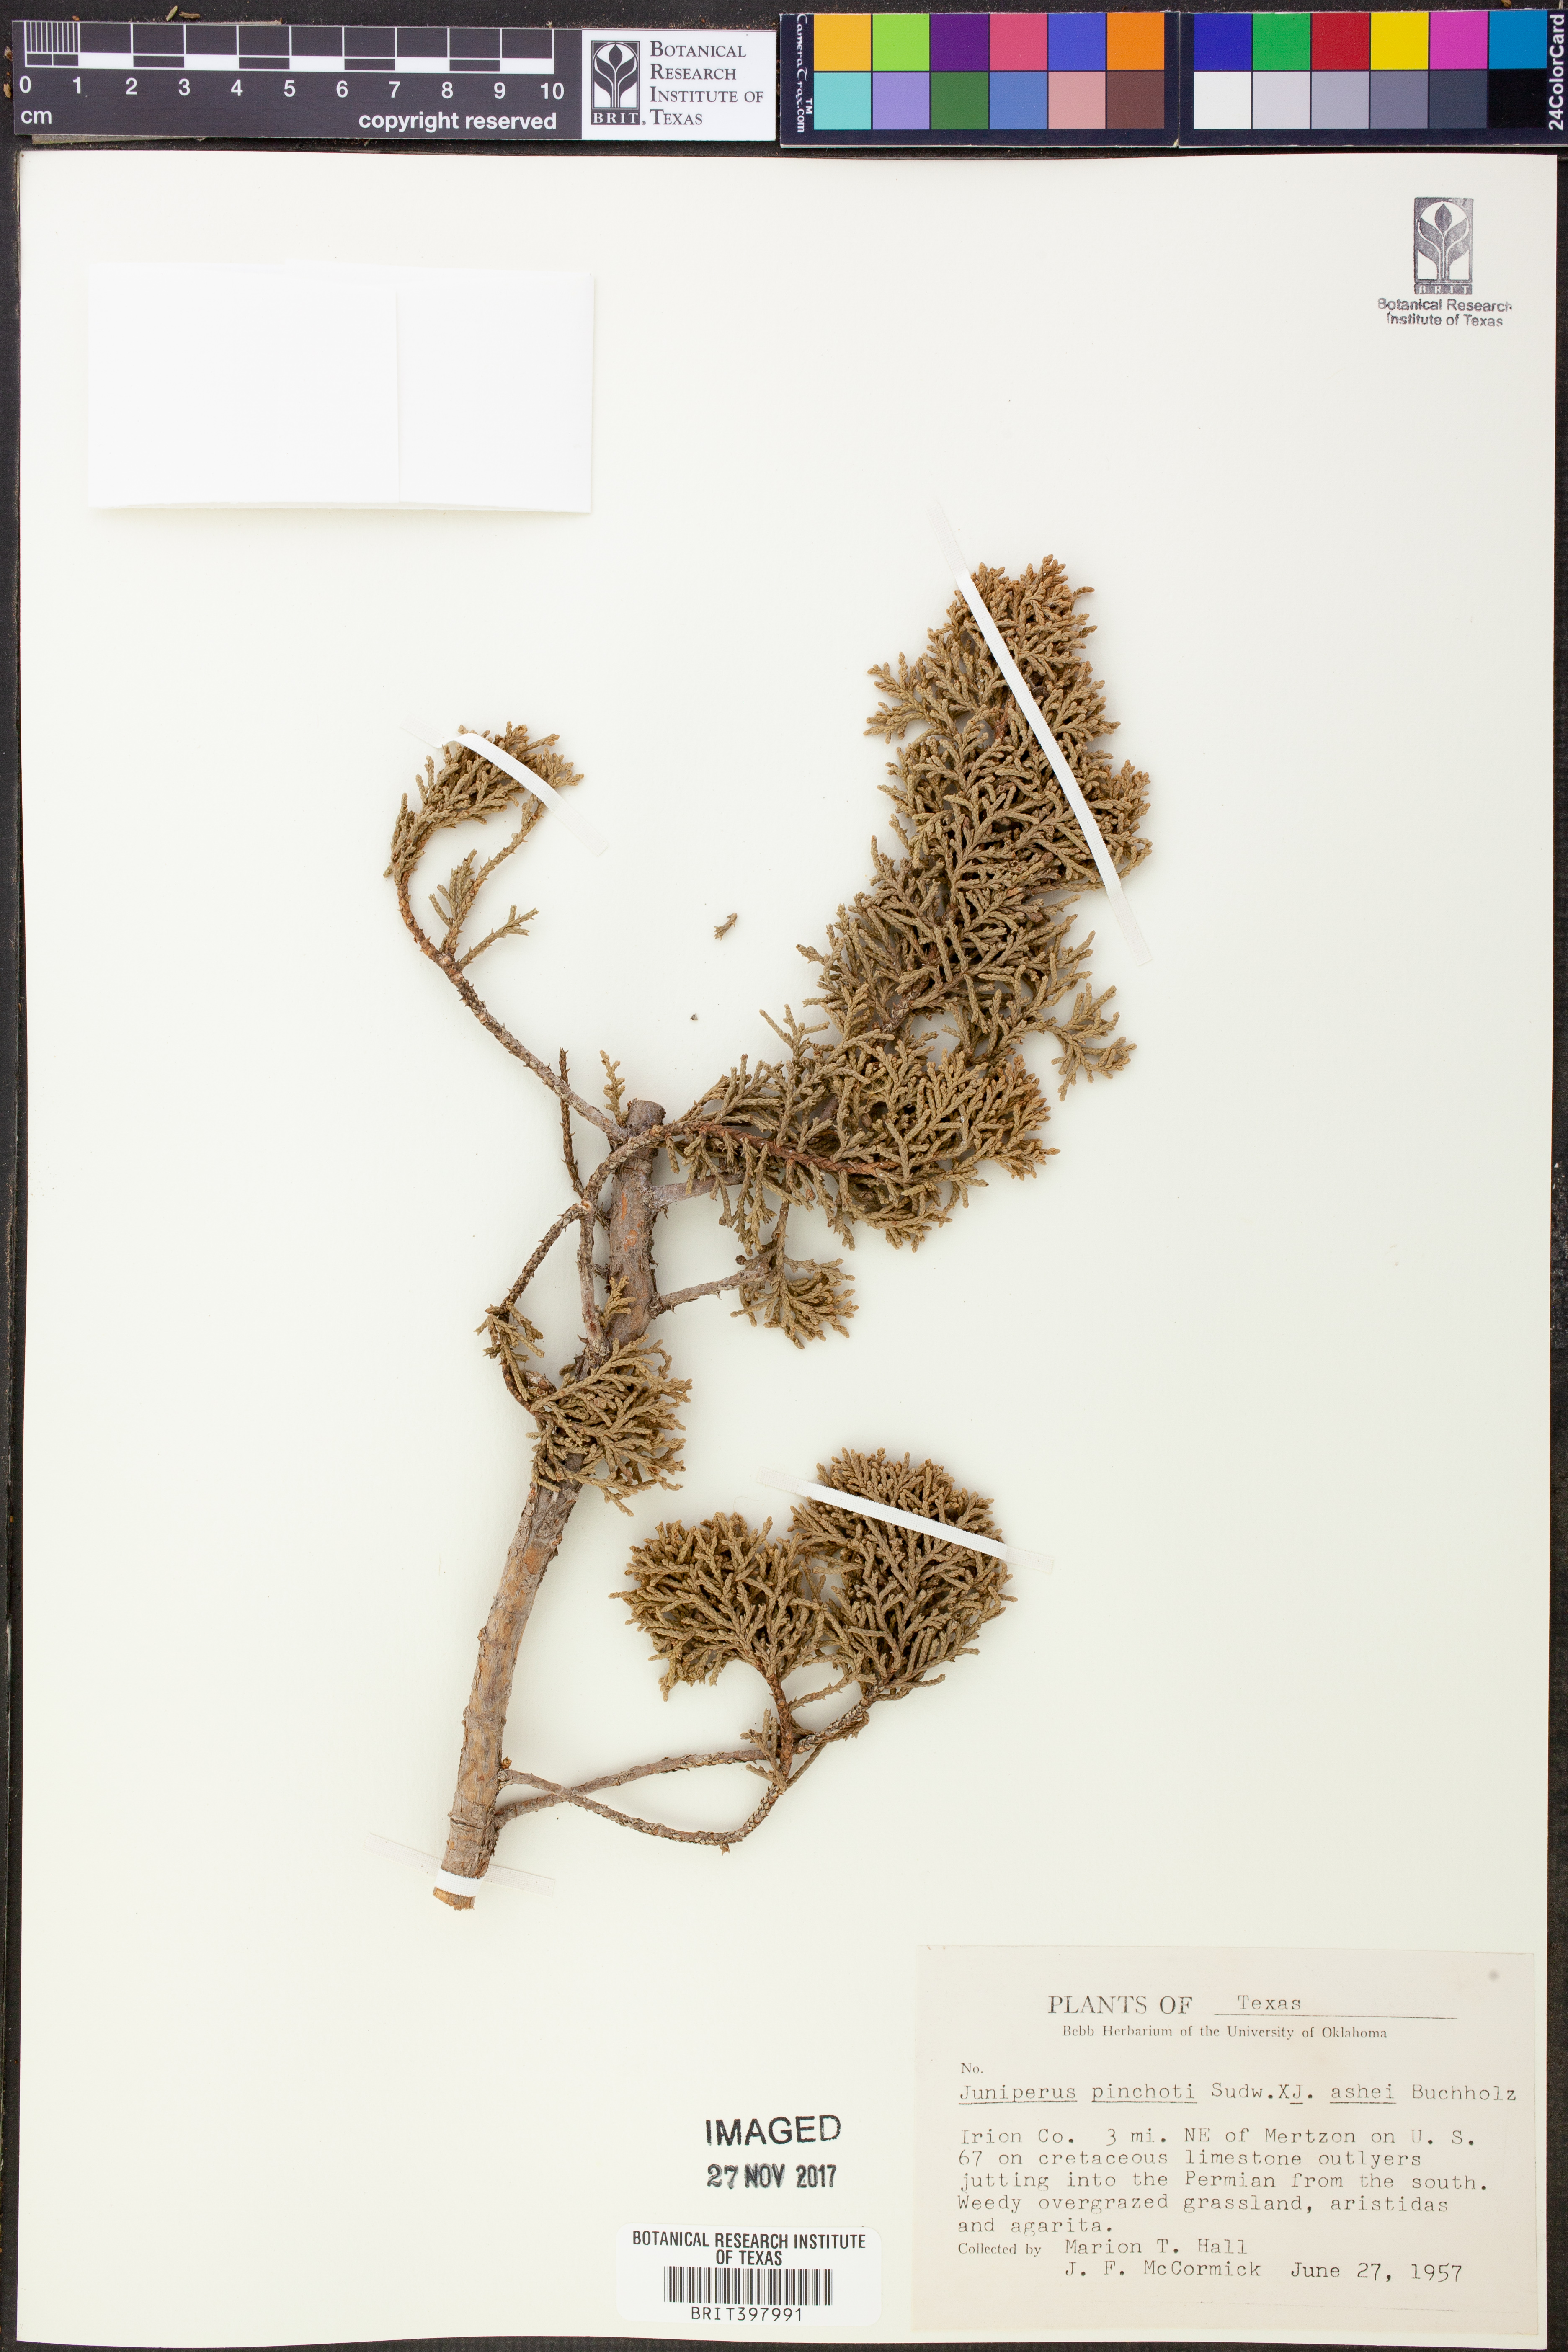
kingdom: Plantae
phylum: Tracheophyta
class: Pinopsida
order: Pinales
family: Cupressaceae
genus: Juniperus
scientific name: Juniperus pinchotii
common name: Pinchot juniper
